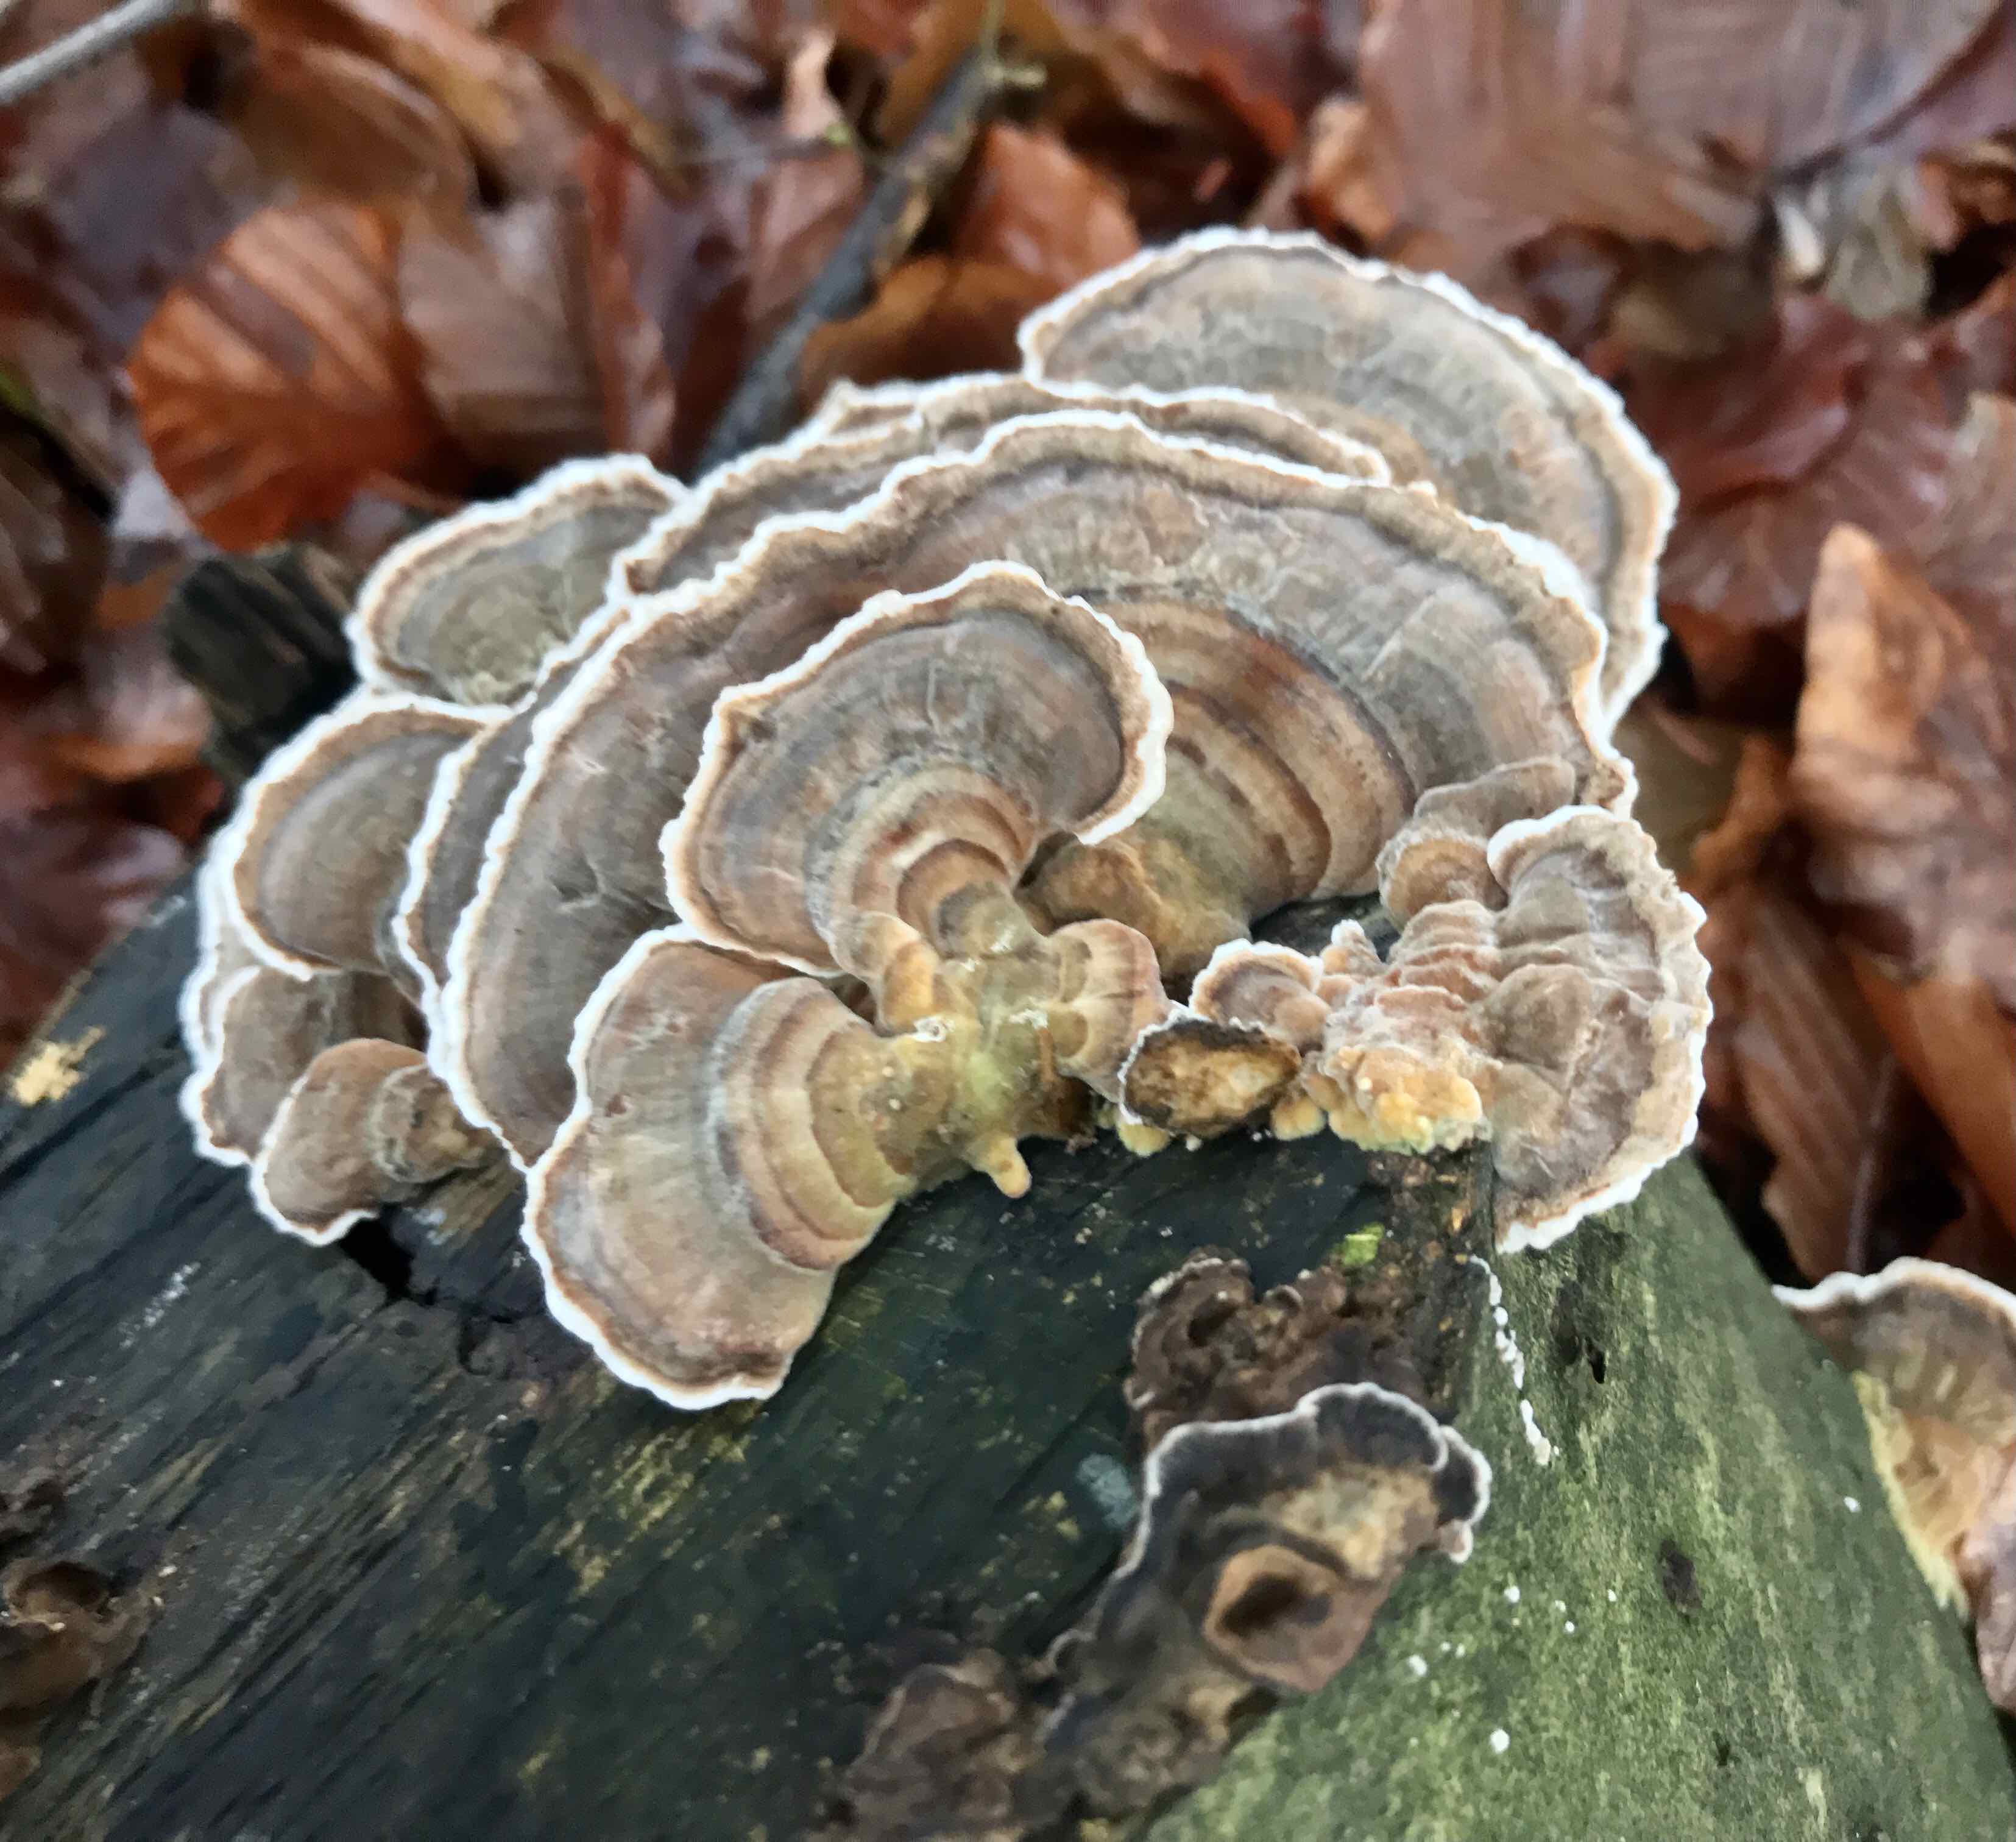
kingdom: Fungi
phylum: Basidiomycota
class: Agaricomycetes
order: Polyporales
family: Polyporaceae
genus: Trametes
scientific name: Trametes versicolor
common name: broget læderporesvamp
